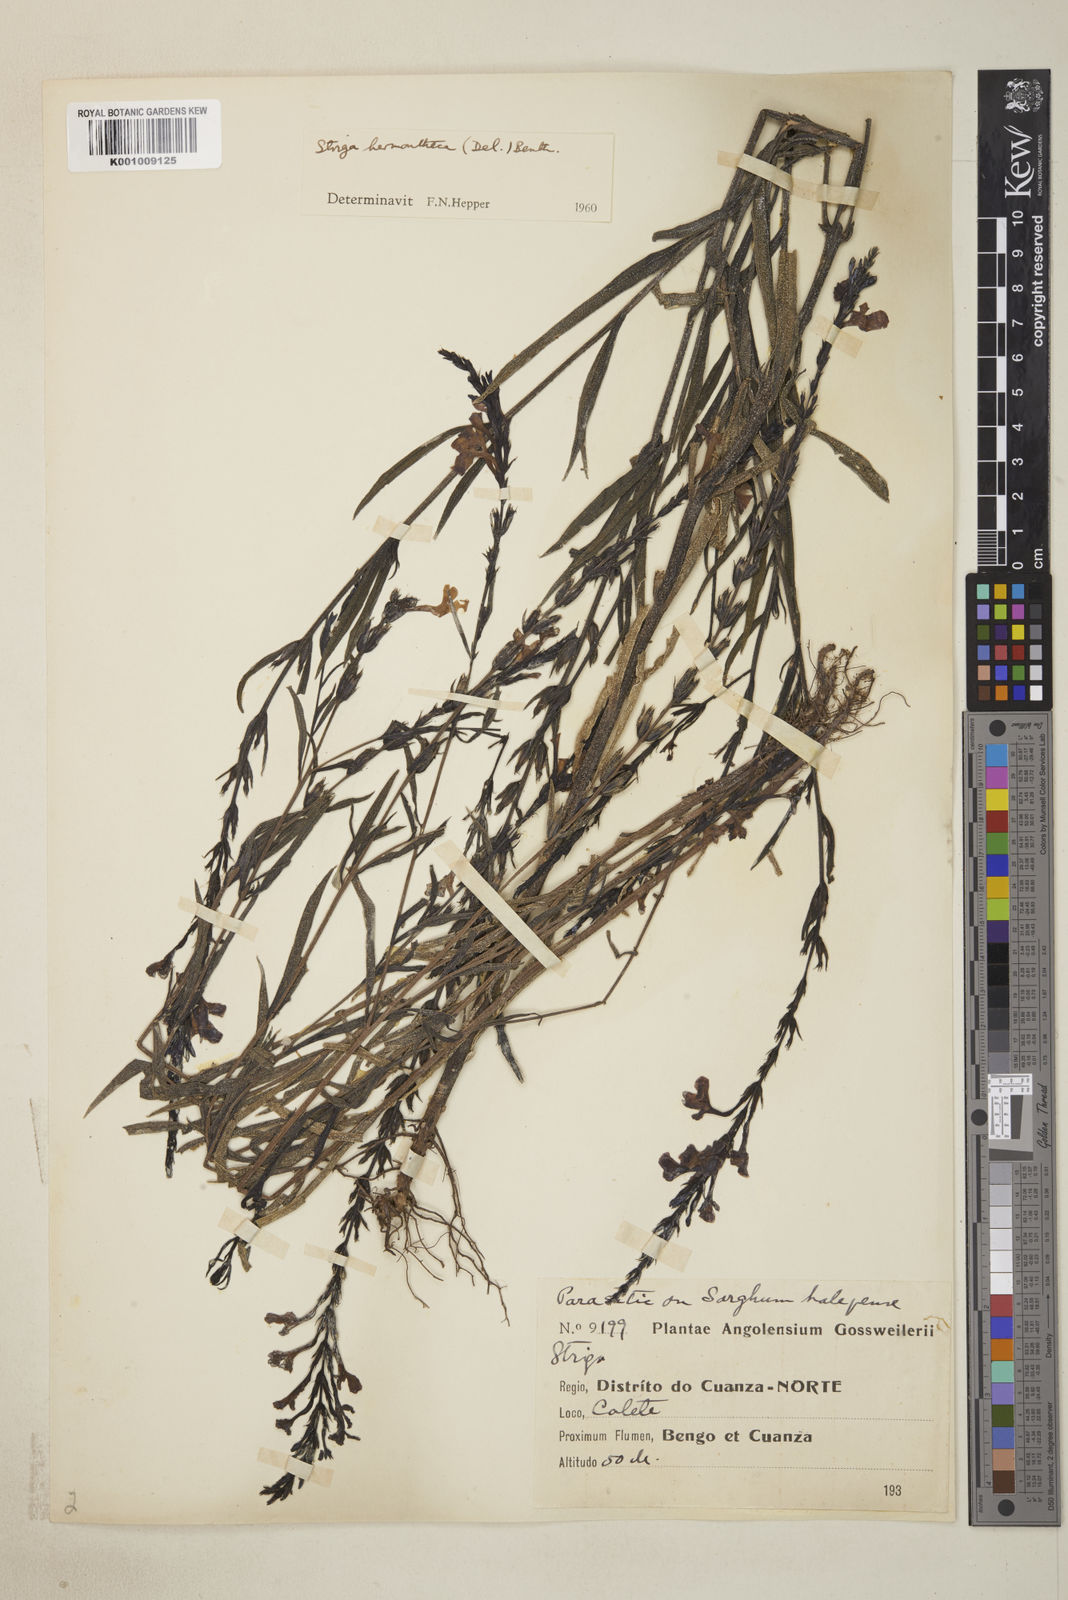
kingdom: Plantae
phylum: Tracheophyta
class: Magnoliopsida
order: Lamiales
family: Orobanchaceae
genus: Striga
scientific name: Striga hermonthica
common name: Purple witchweed
